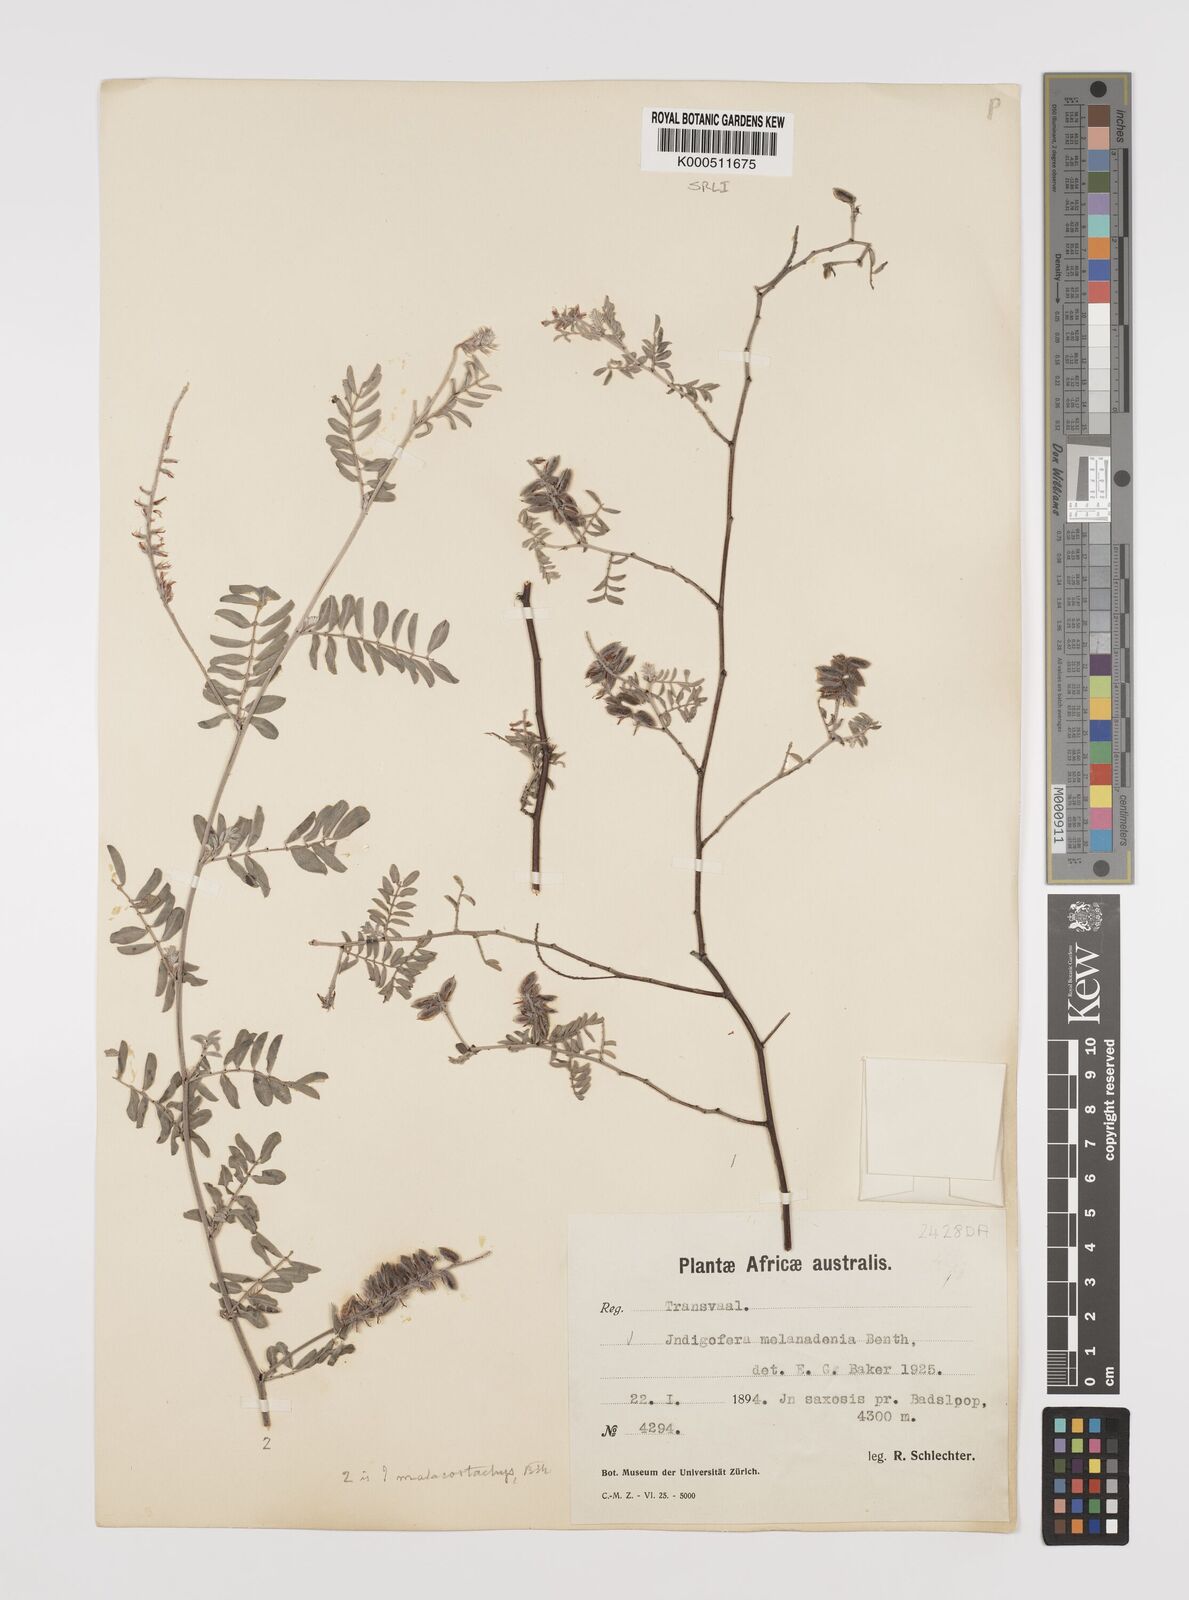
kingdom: Plantae
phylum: Tracheophyta
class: Magnoliopsida
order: Fabales
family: Fabaceae
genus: Indigofera
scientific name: Indigofera melanadenia
